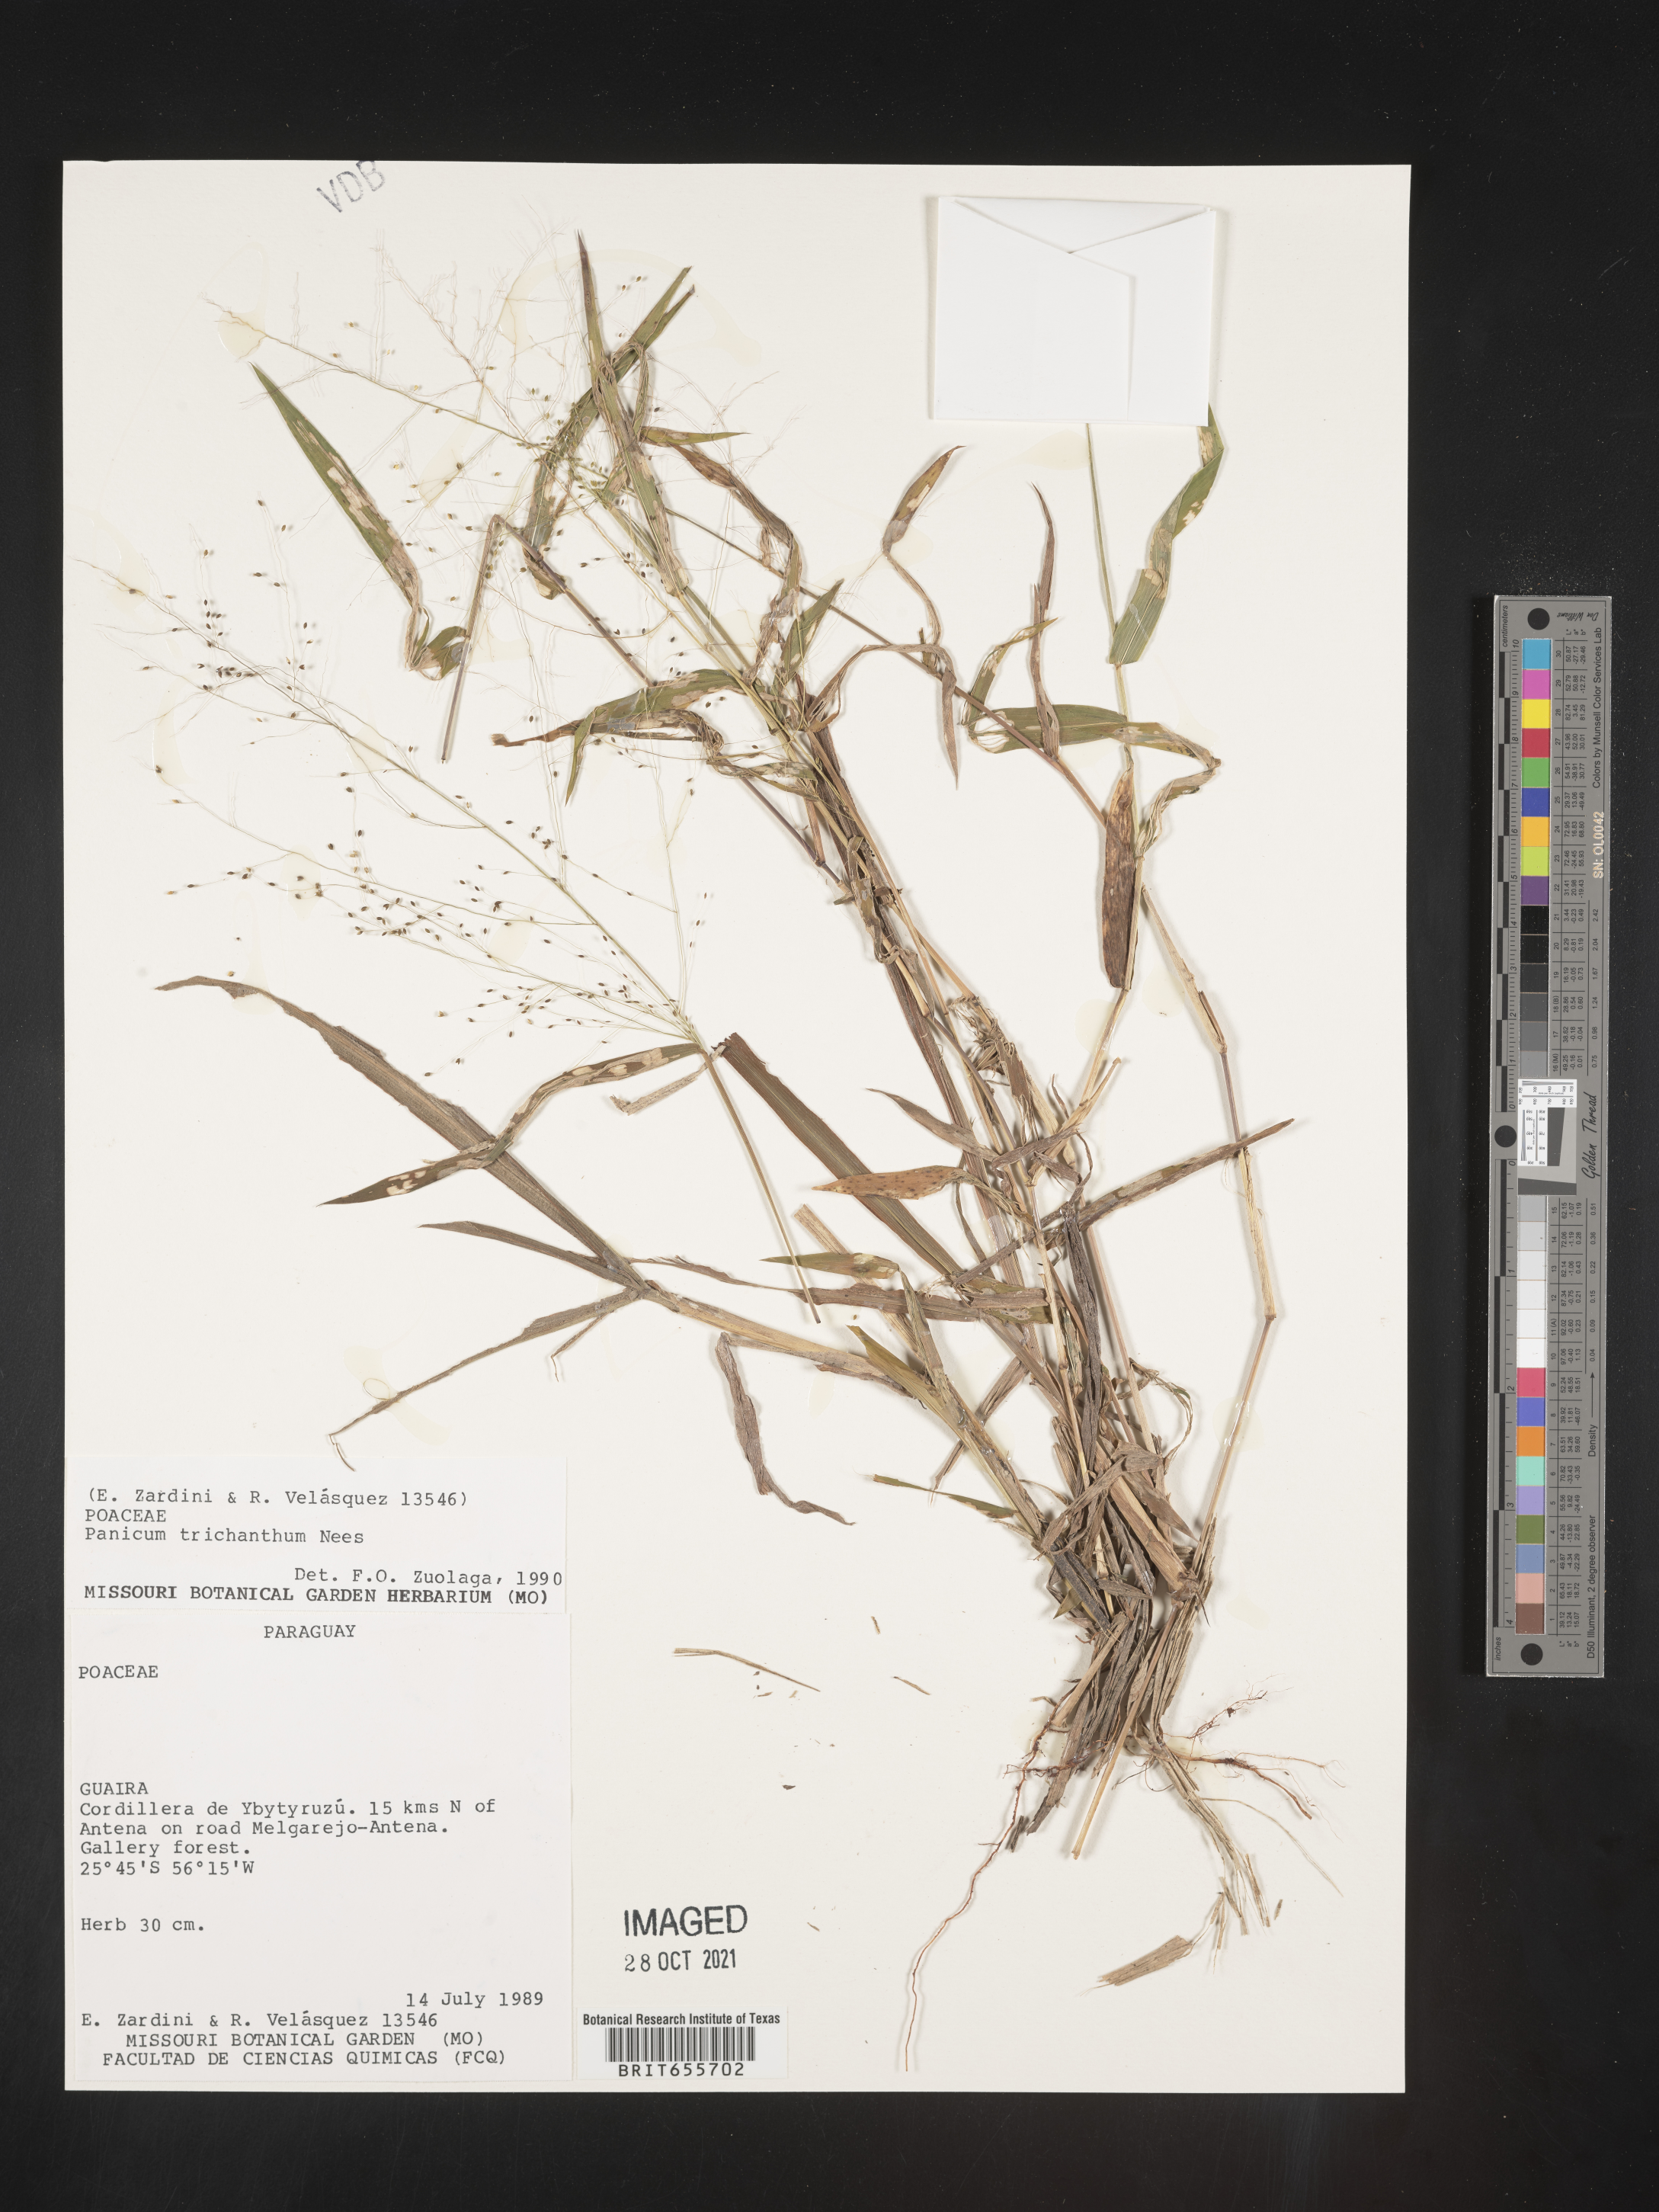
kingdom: Plantae
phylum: Tracheophyta
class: Liliopsida
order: Poales
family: Poaceae
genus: Panicum
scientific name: Panicum
